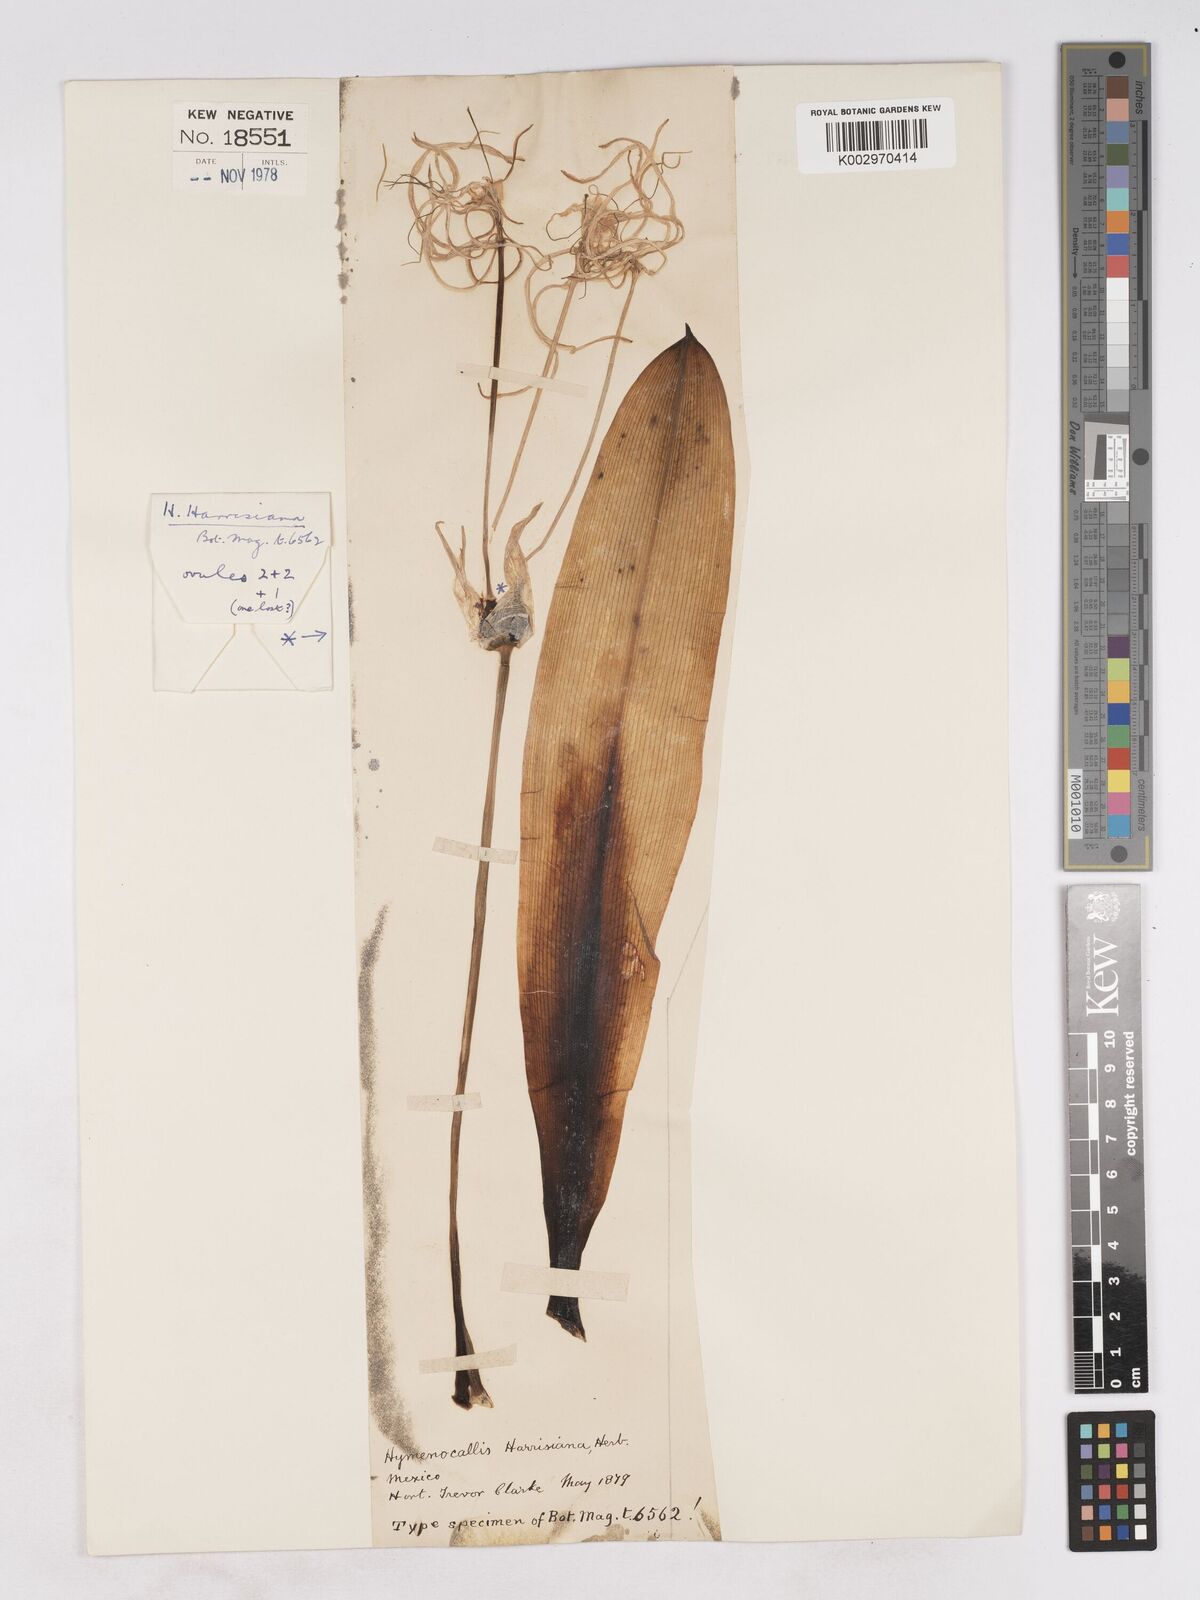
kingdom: Plantae
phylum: Tracheophyta
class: Liliopsida
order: Asparagales
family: Amaryllidaceae
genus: Hymenocallis
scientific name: Hymenocallis harrisiana
